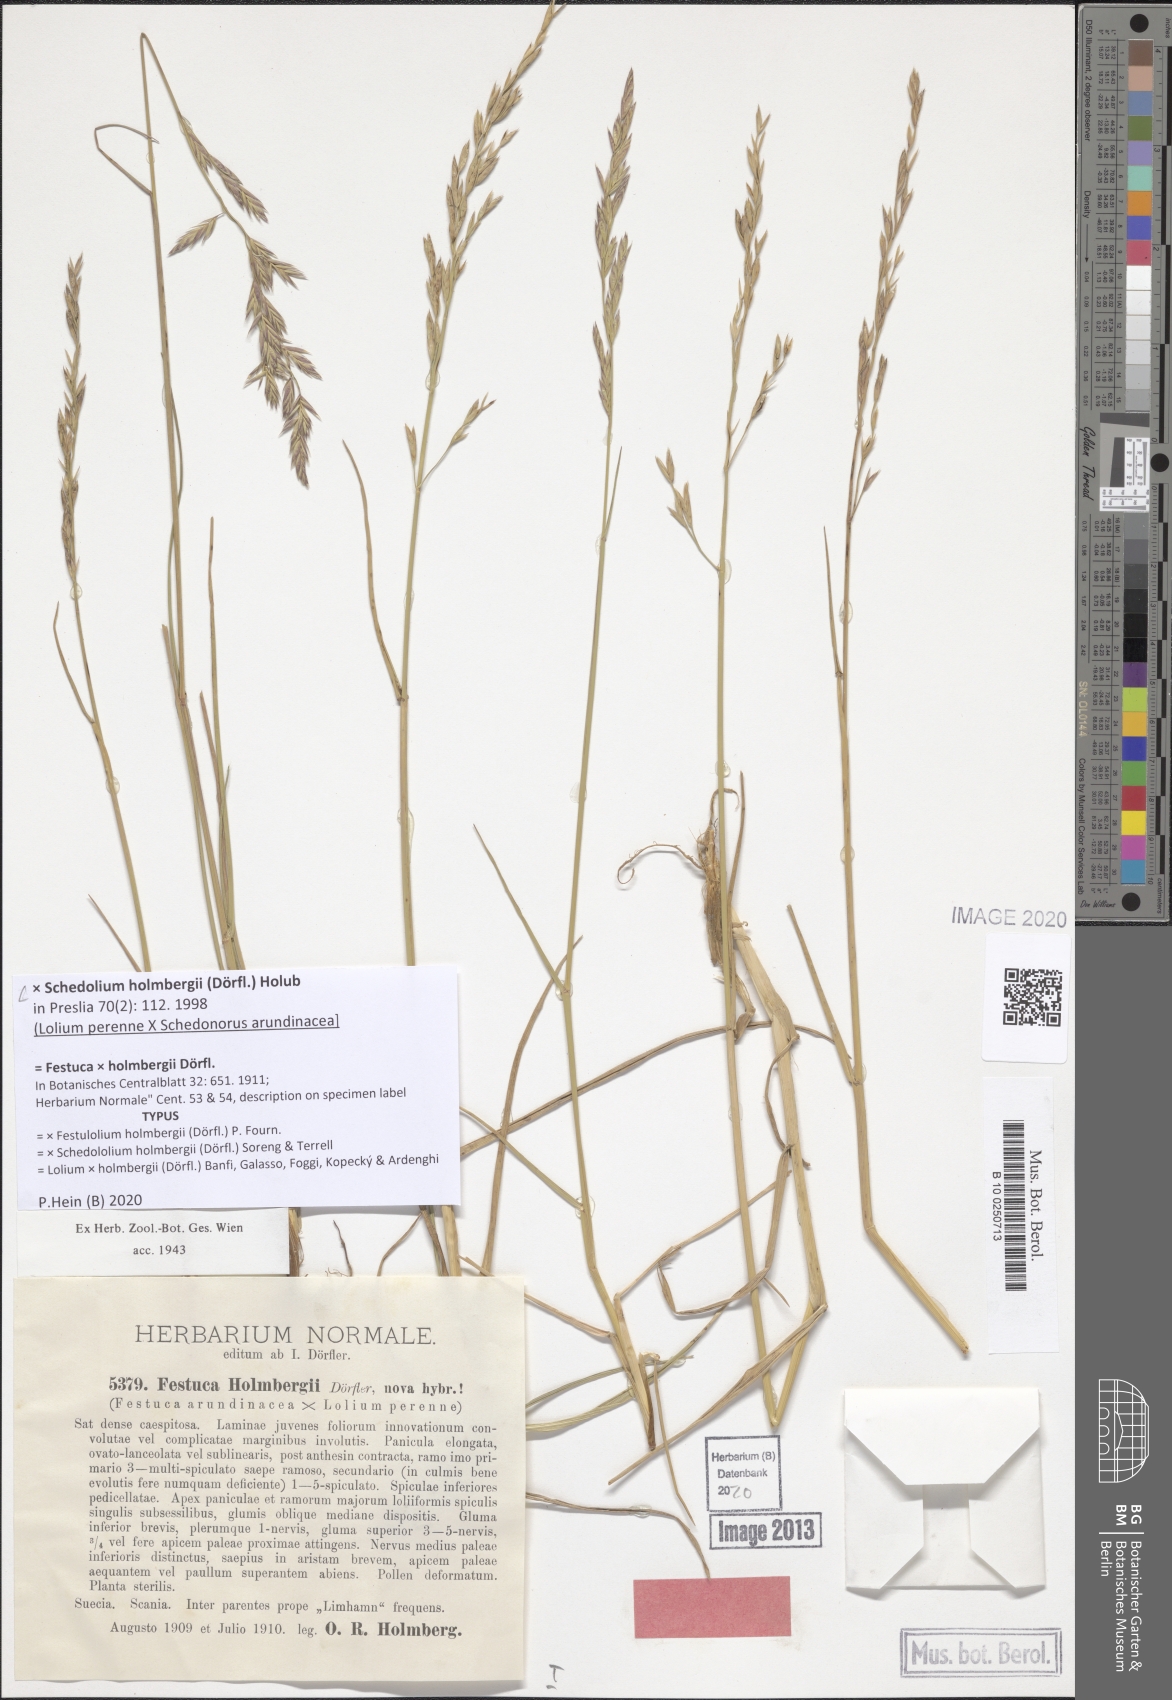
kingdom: Plantae
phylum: Tracheophyta
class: Liliopsida
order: Poales
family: Poaceae
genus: Lolium
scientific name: Lolium holmbergii
